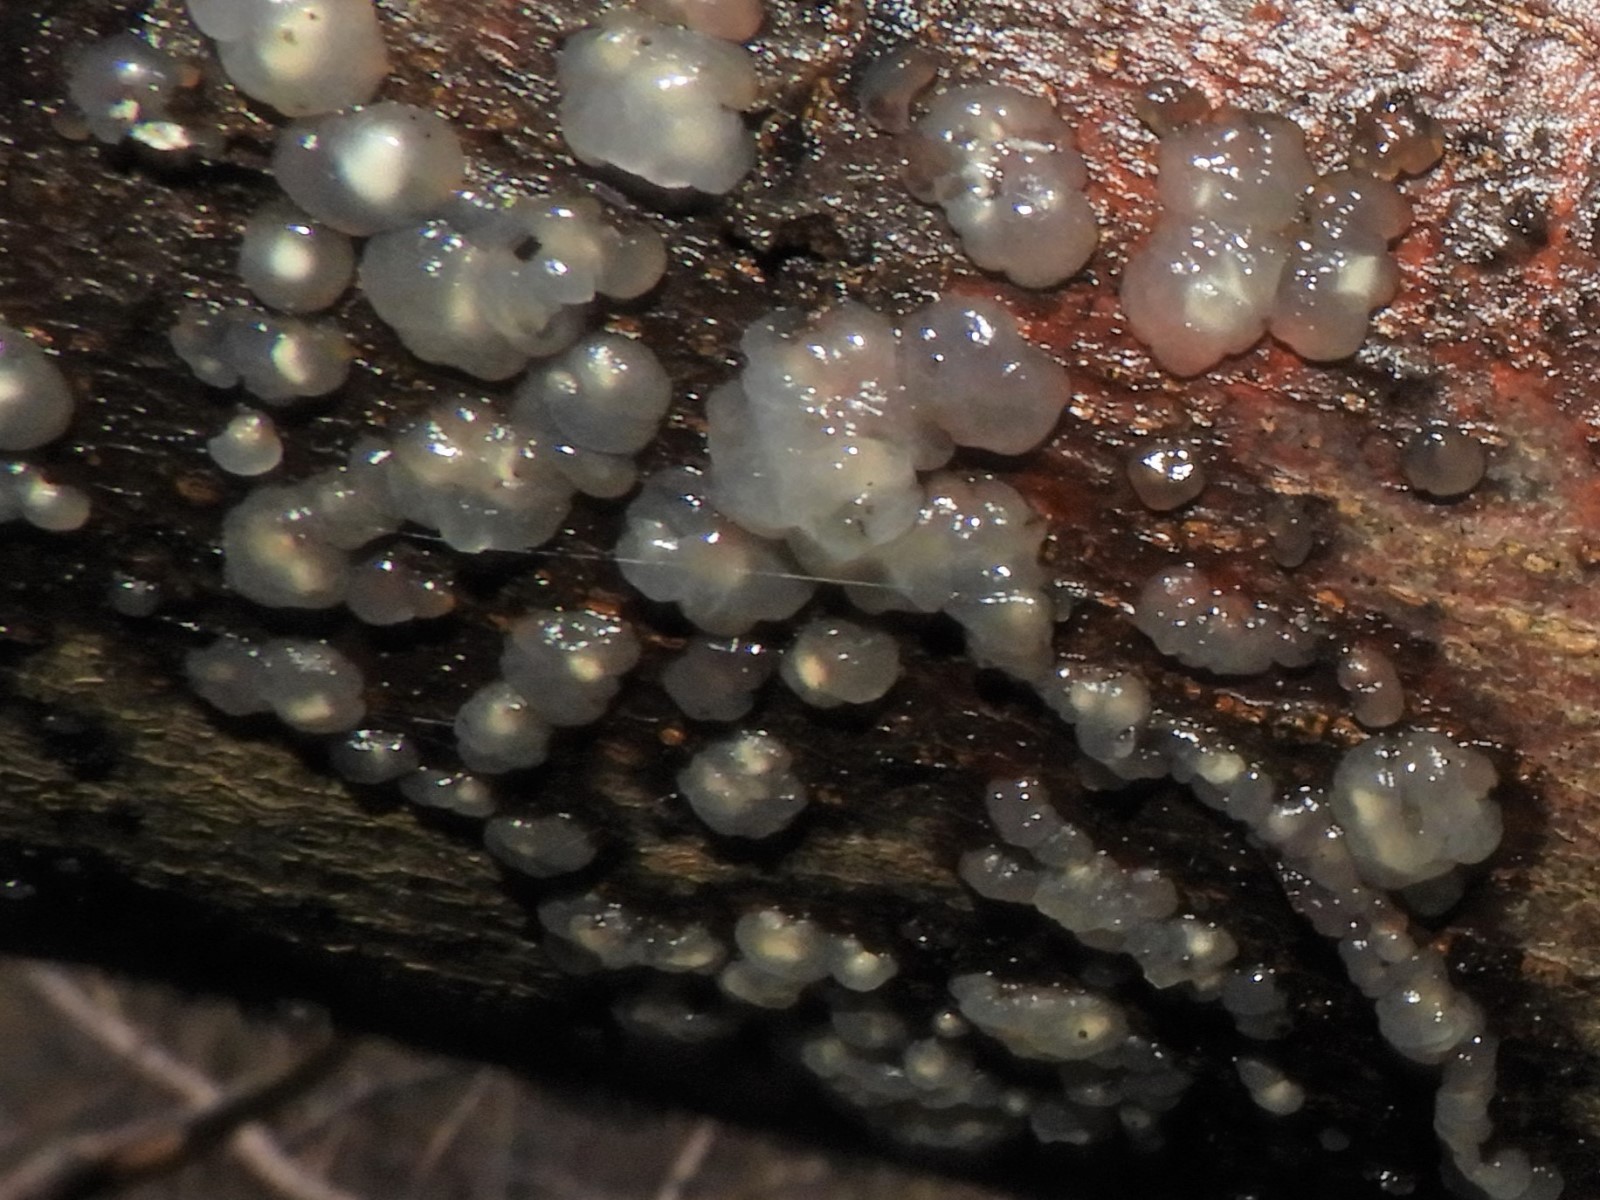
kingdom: Fungi
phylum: Basidiomycota
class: Agaricomycetes
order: Auriculariales
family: Hyaloriaceae
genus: Myxarium
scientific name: Myxarium nucleatum
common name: klar bævretop
